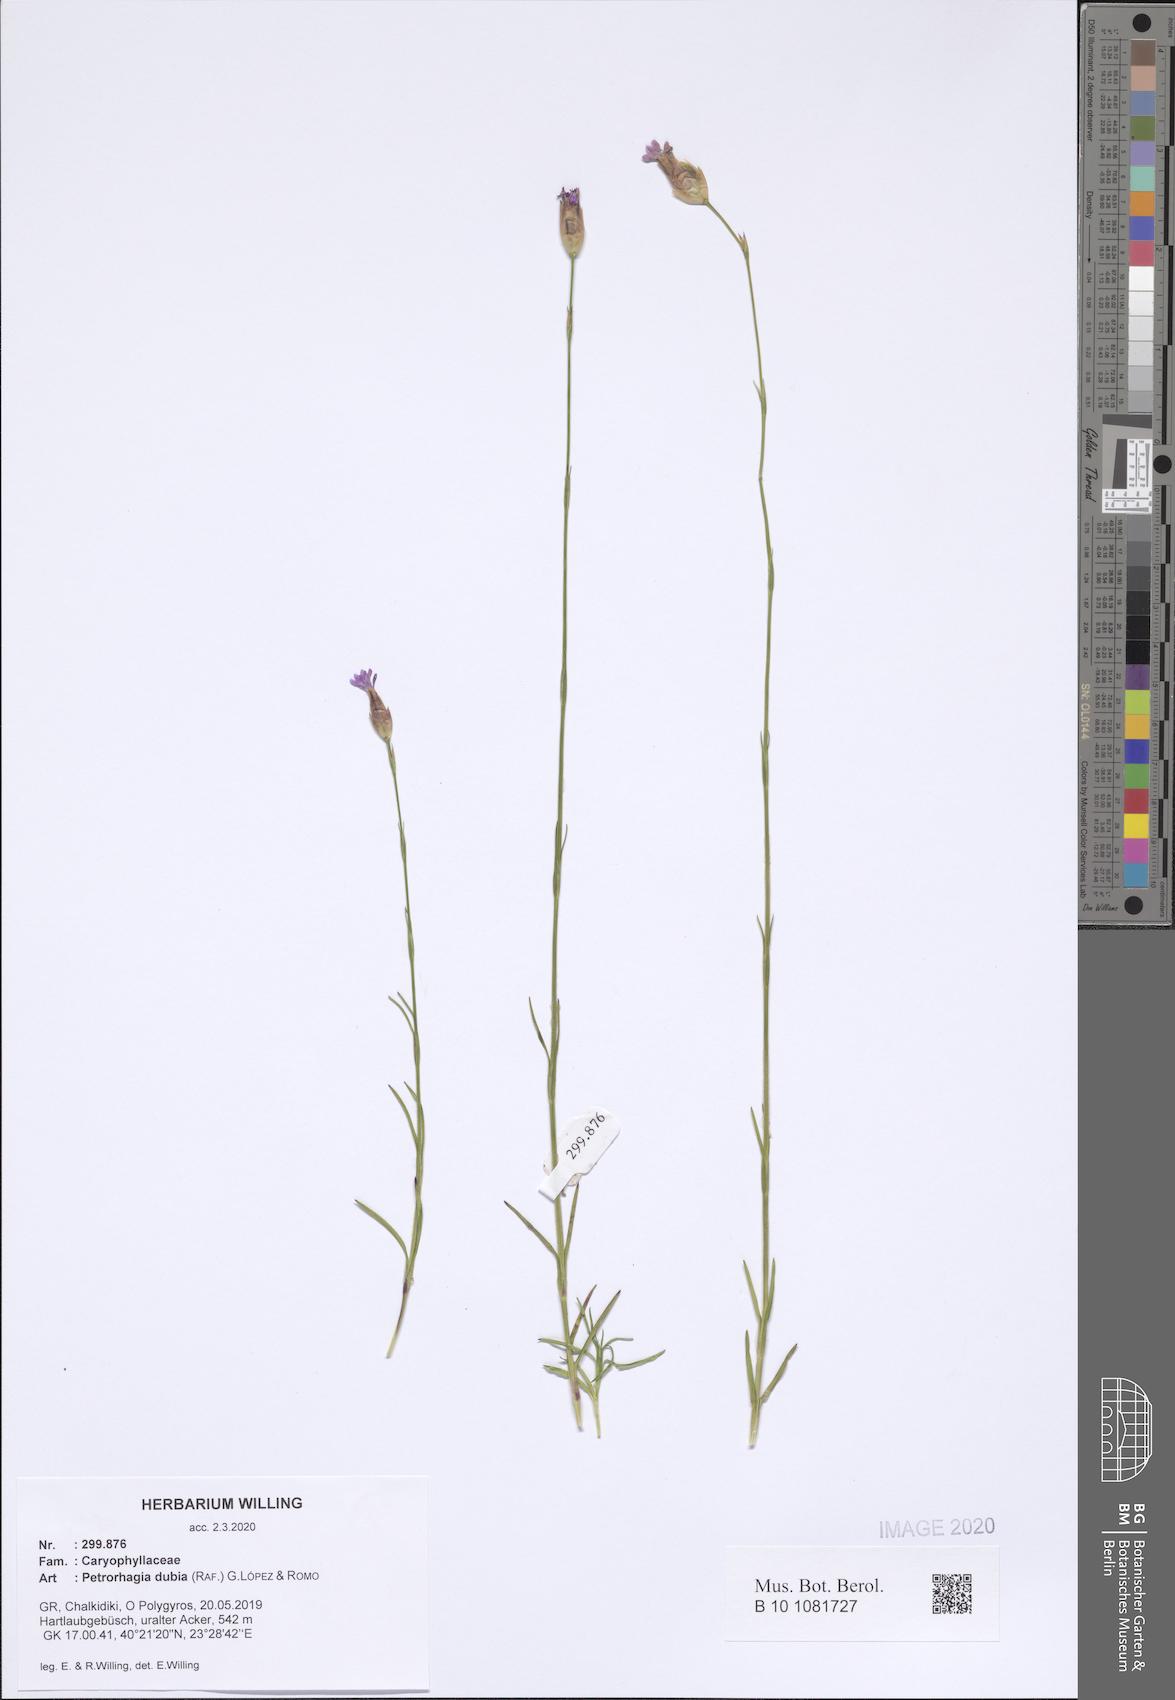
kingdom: Plantae
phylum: Tracheophyta
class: Magnoliopsida
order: Caryophyllales
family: Caryophyllaceae
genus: Petrorhagia
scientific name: Petrorhagia dubia
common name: Hairypink
